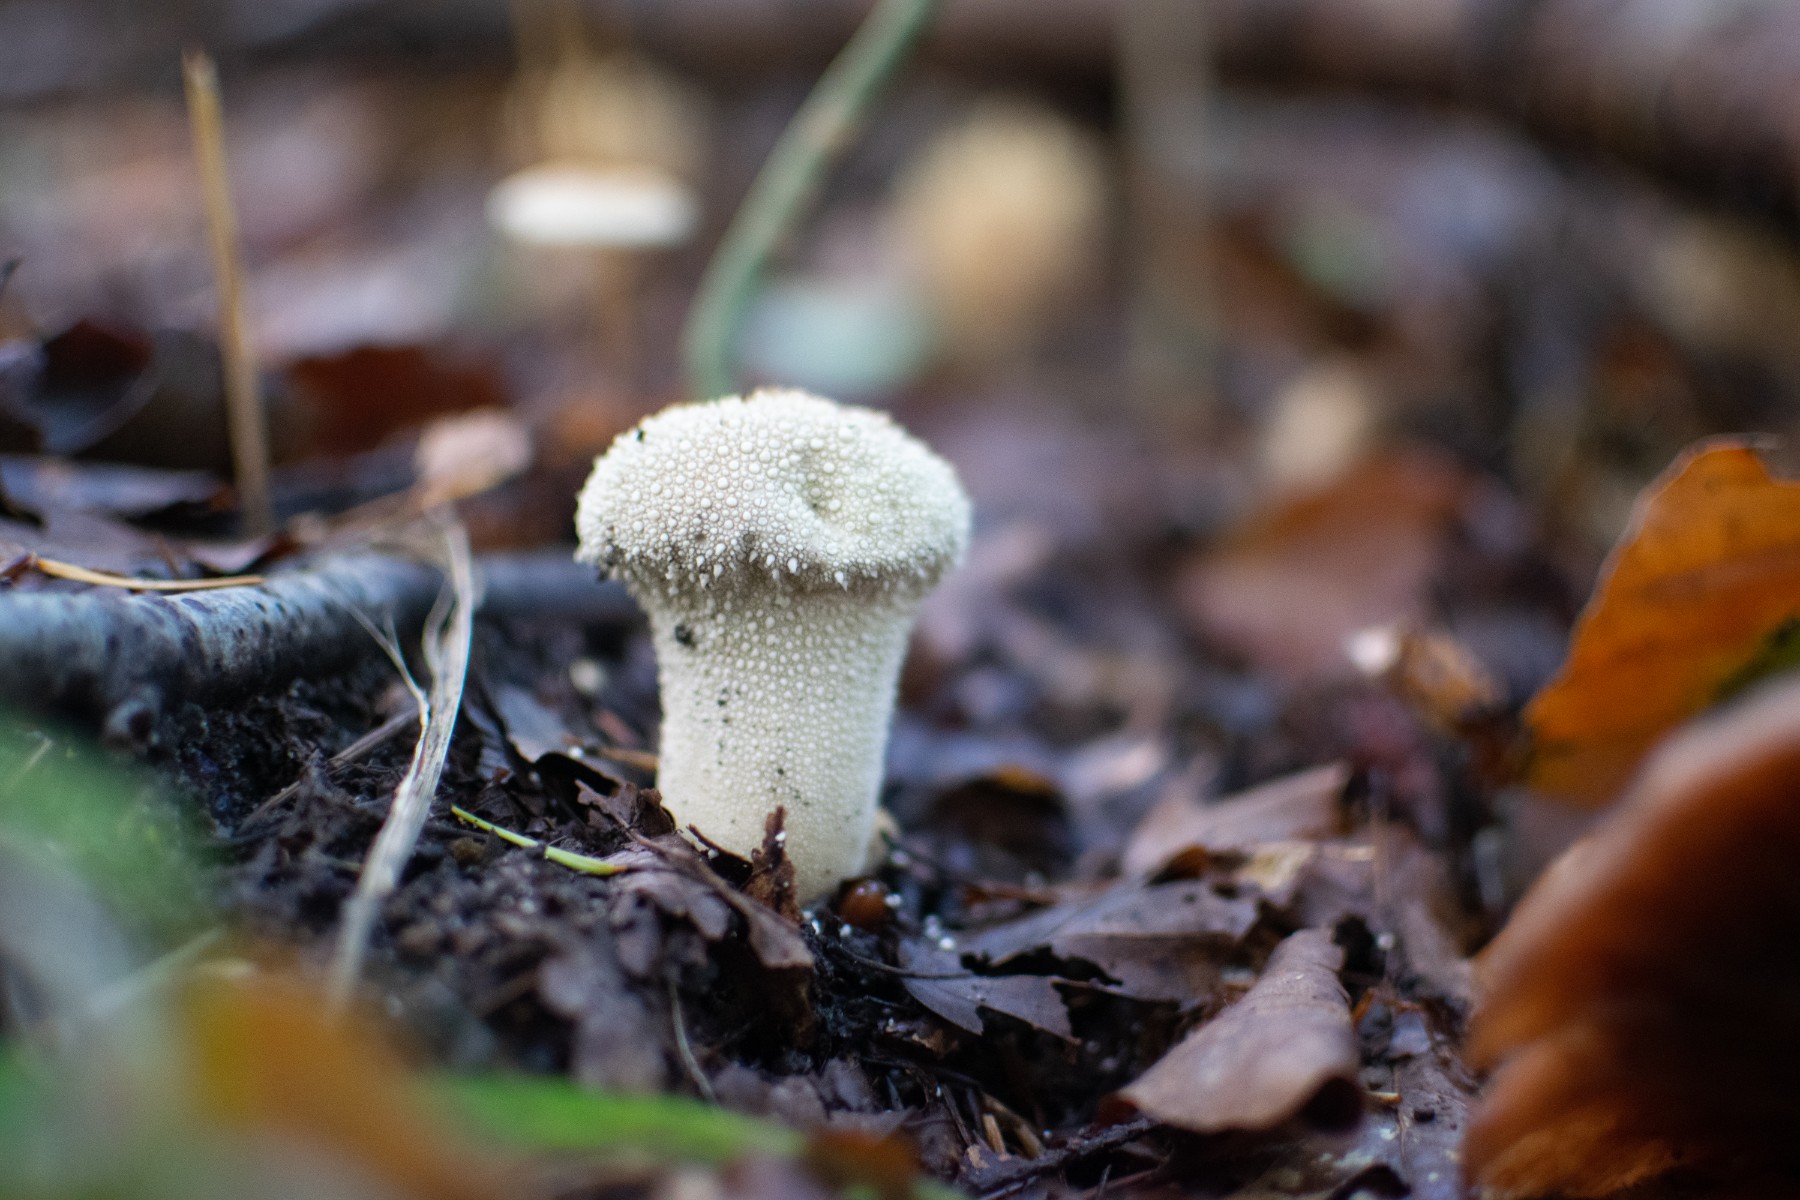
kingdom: Fungi
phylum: Basidiomycota
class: Agaricomycetes
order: Agaricales
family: Lycoperdaceae
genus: Lycoperdon
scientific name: Lycoperdon perlatum
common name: krystal-støvbold
